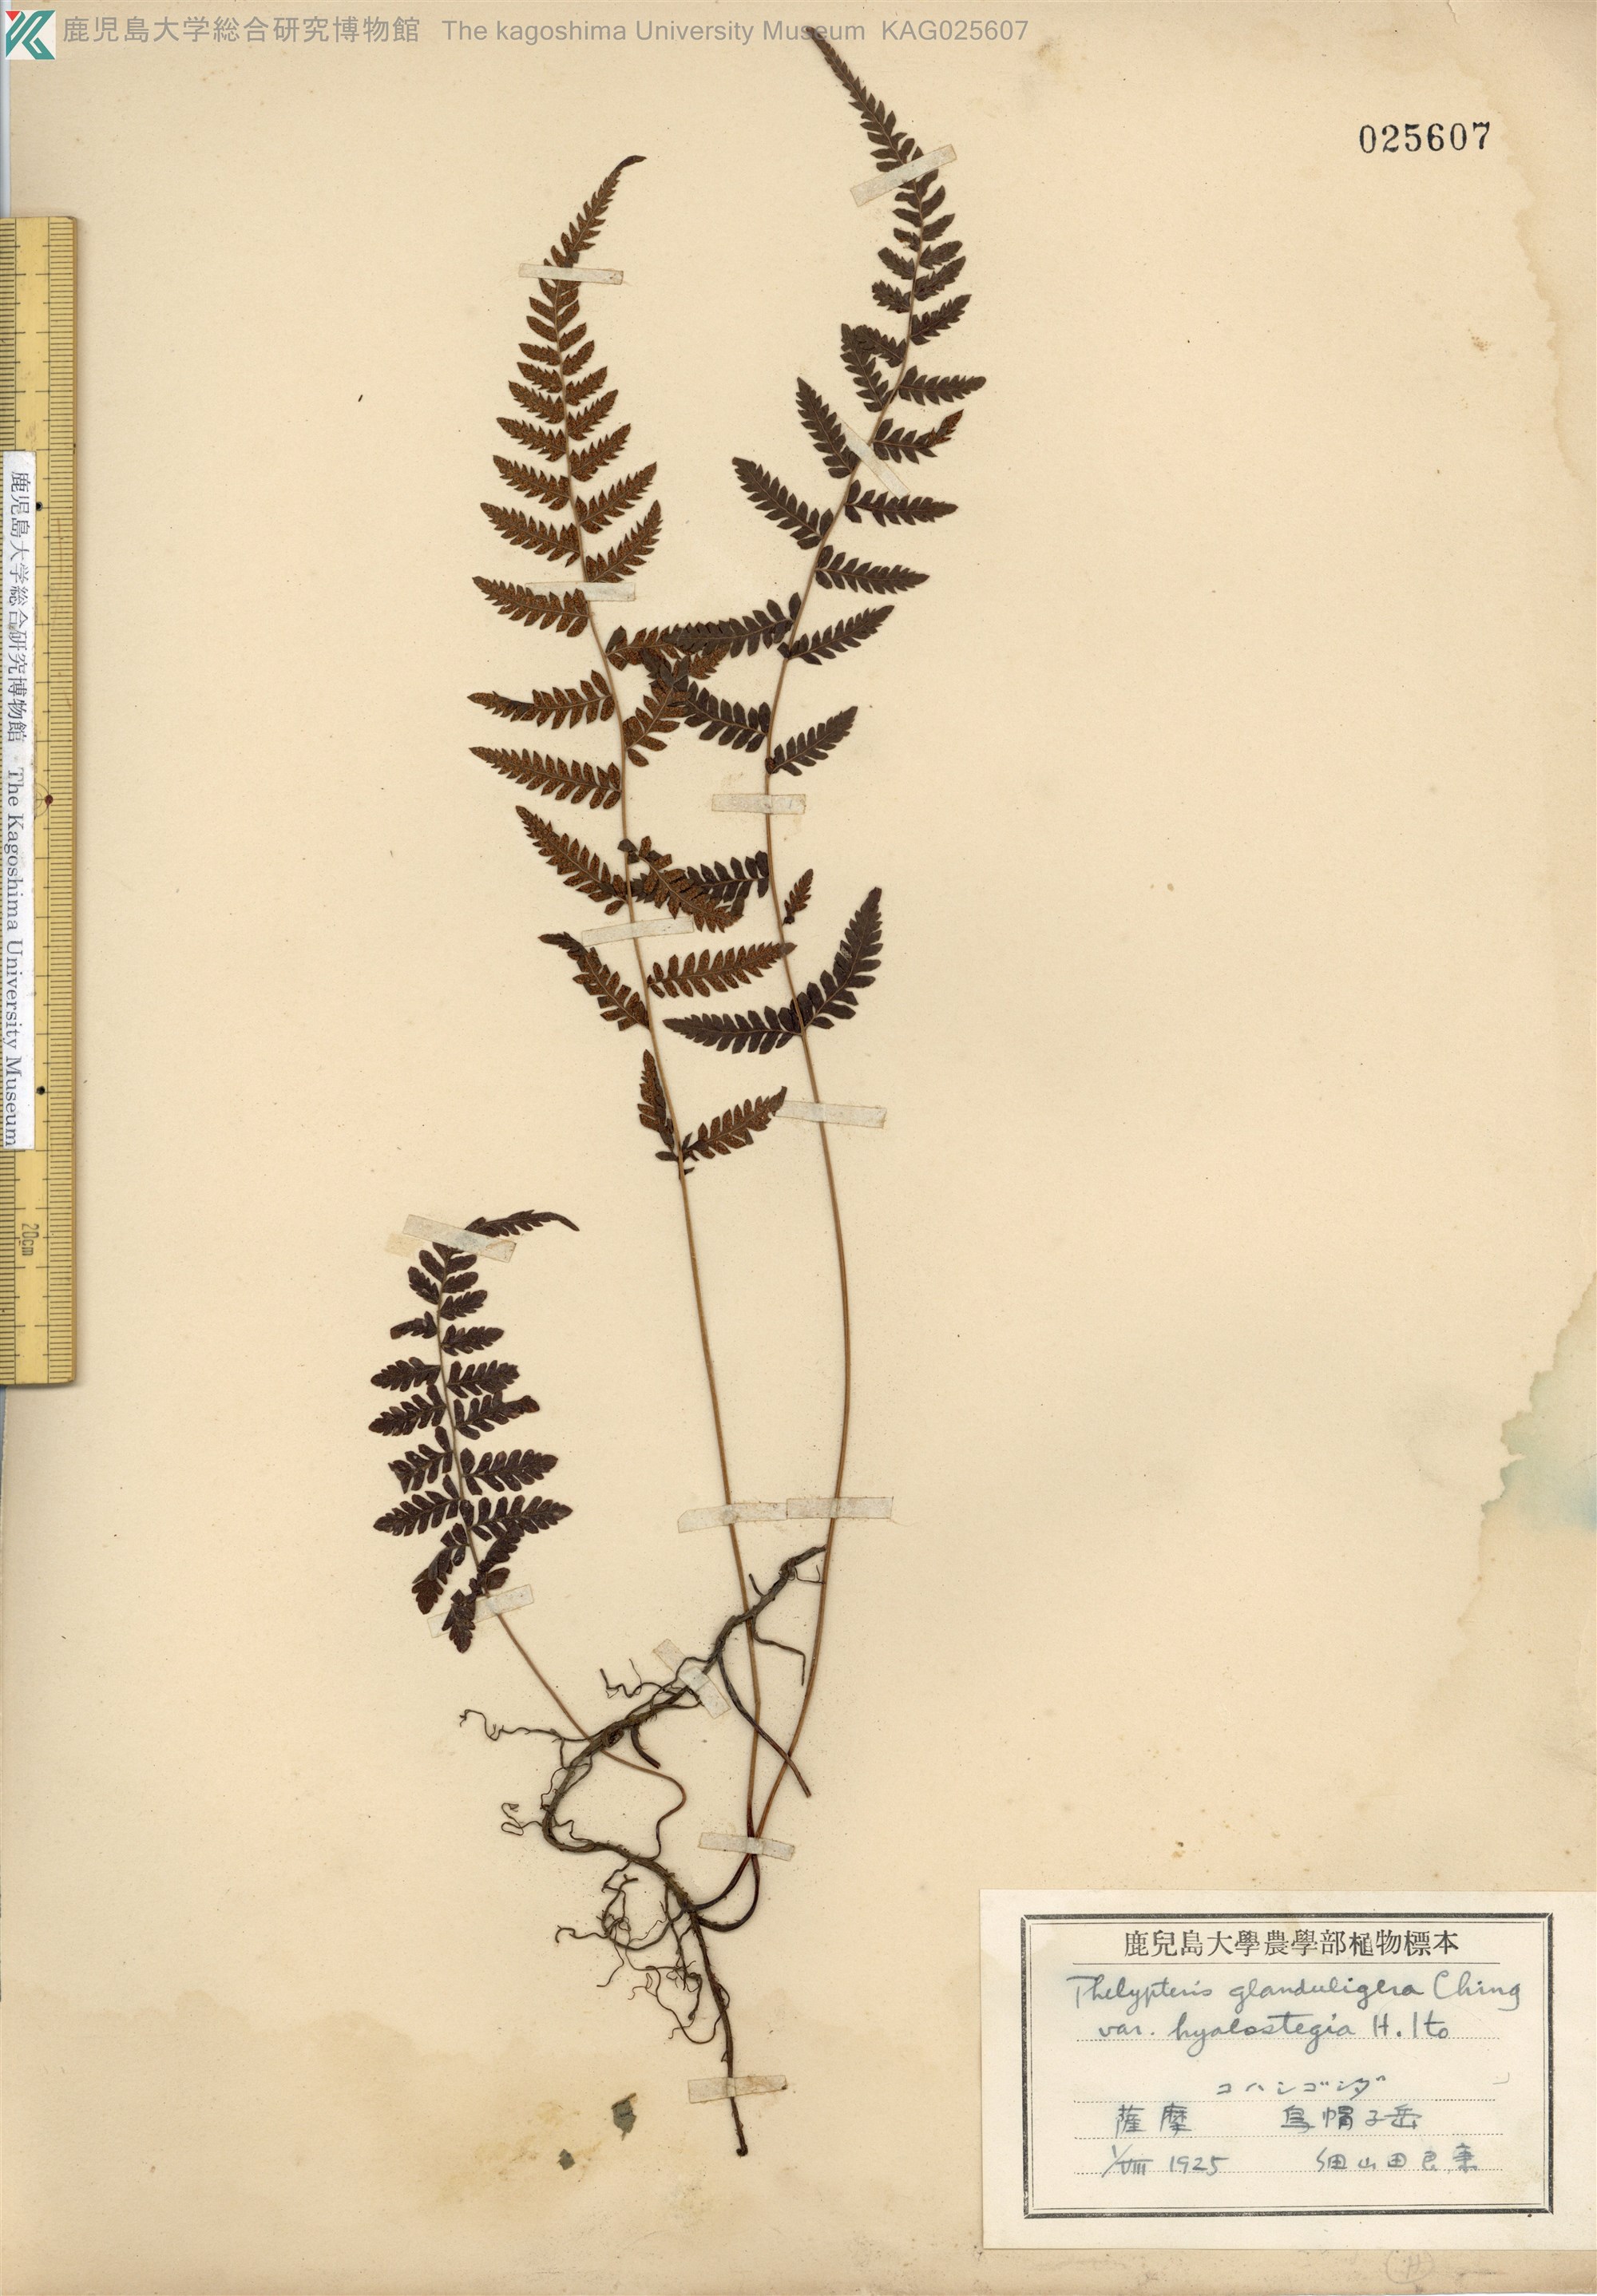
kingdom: Plantae
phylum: Tracheophyta
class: Polypodiopsida
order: Polypodiales
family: Thelypteridaceae
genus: Amauropelta
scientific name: Amauropelta angustifrons
